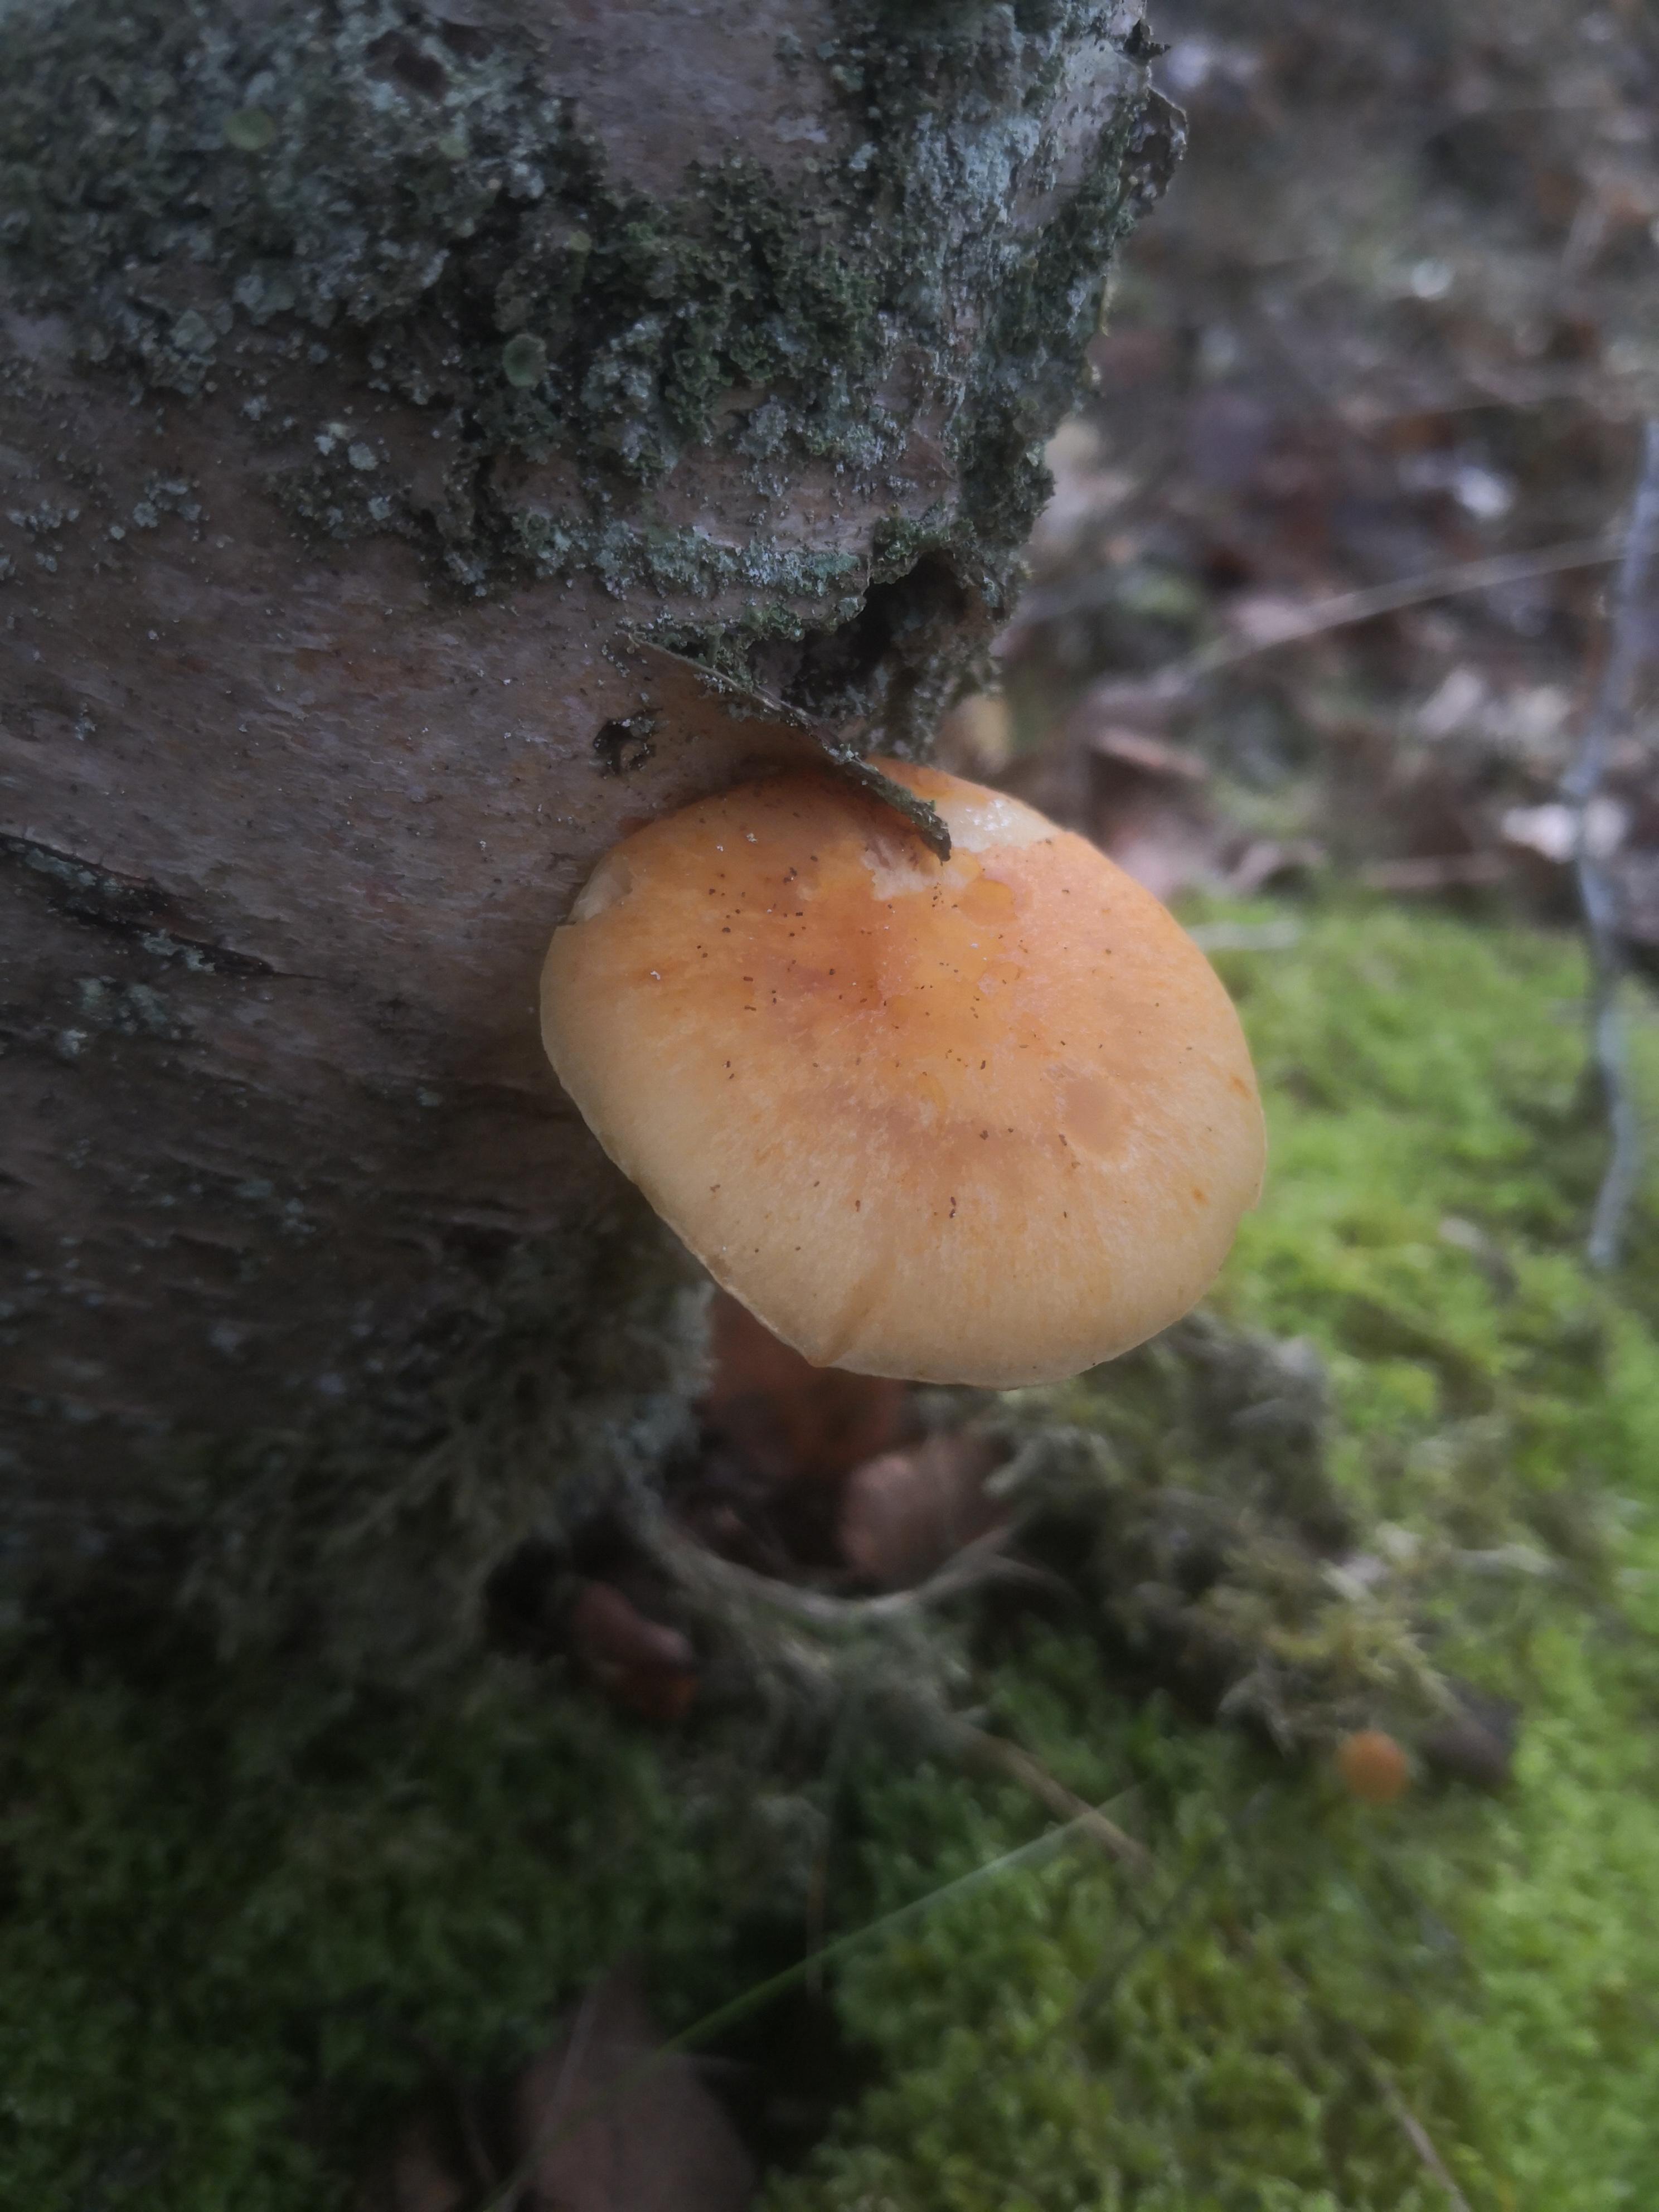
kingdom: Fungi
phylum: Basidiomycota
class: Agaricomycetes
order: Agaricales
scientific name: Agaricales
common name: champignonordenen
